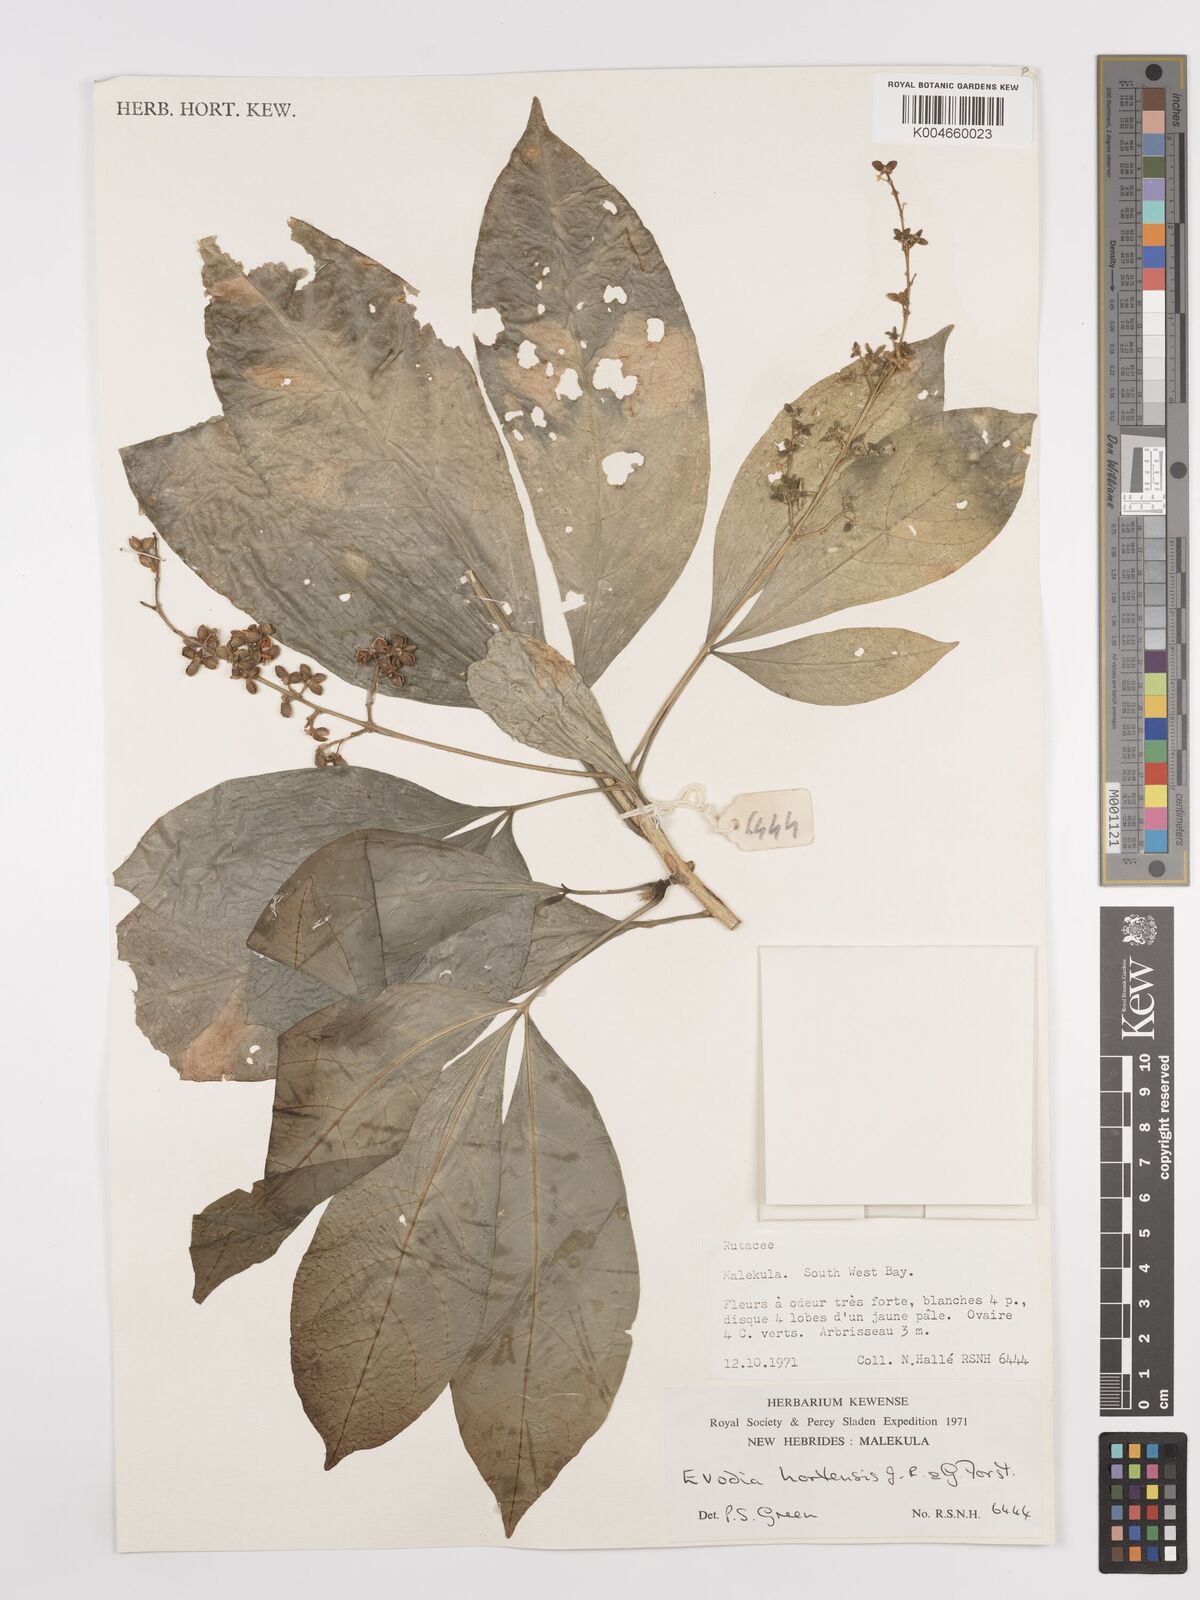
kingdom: Plantae
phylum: Tracheophyta
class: Magnoliopsida
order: Sapindales
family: Rutaceae
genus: Euodia
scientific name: Euodia hortensis
